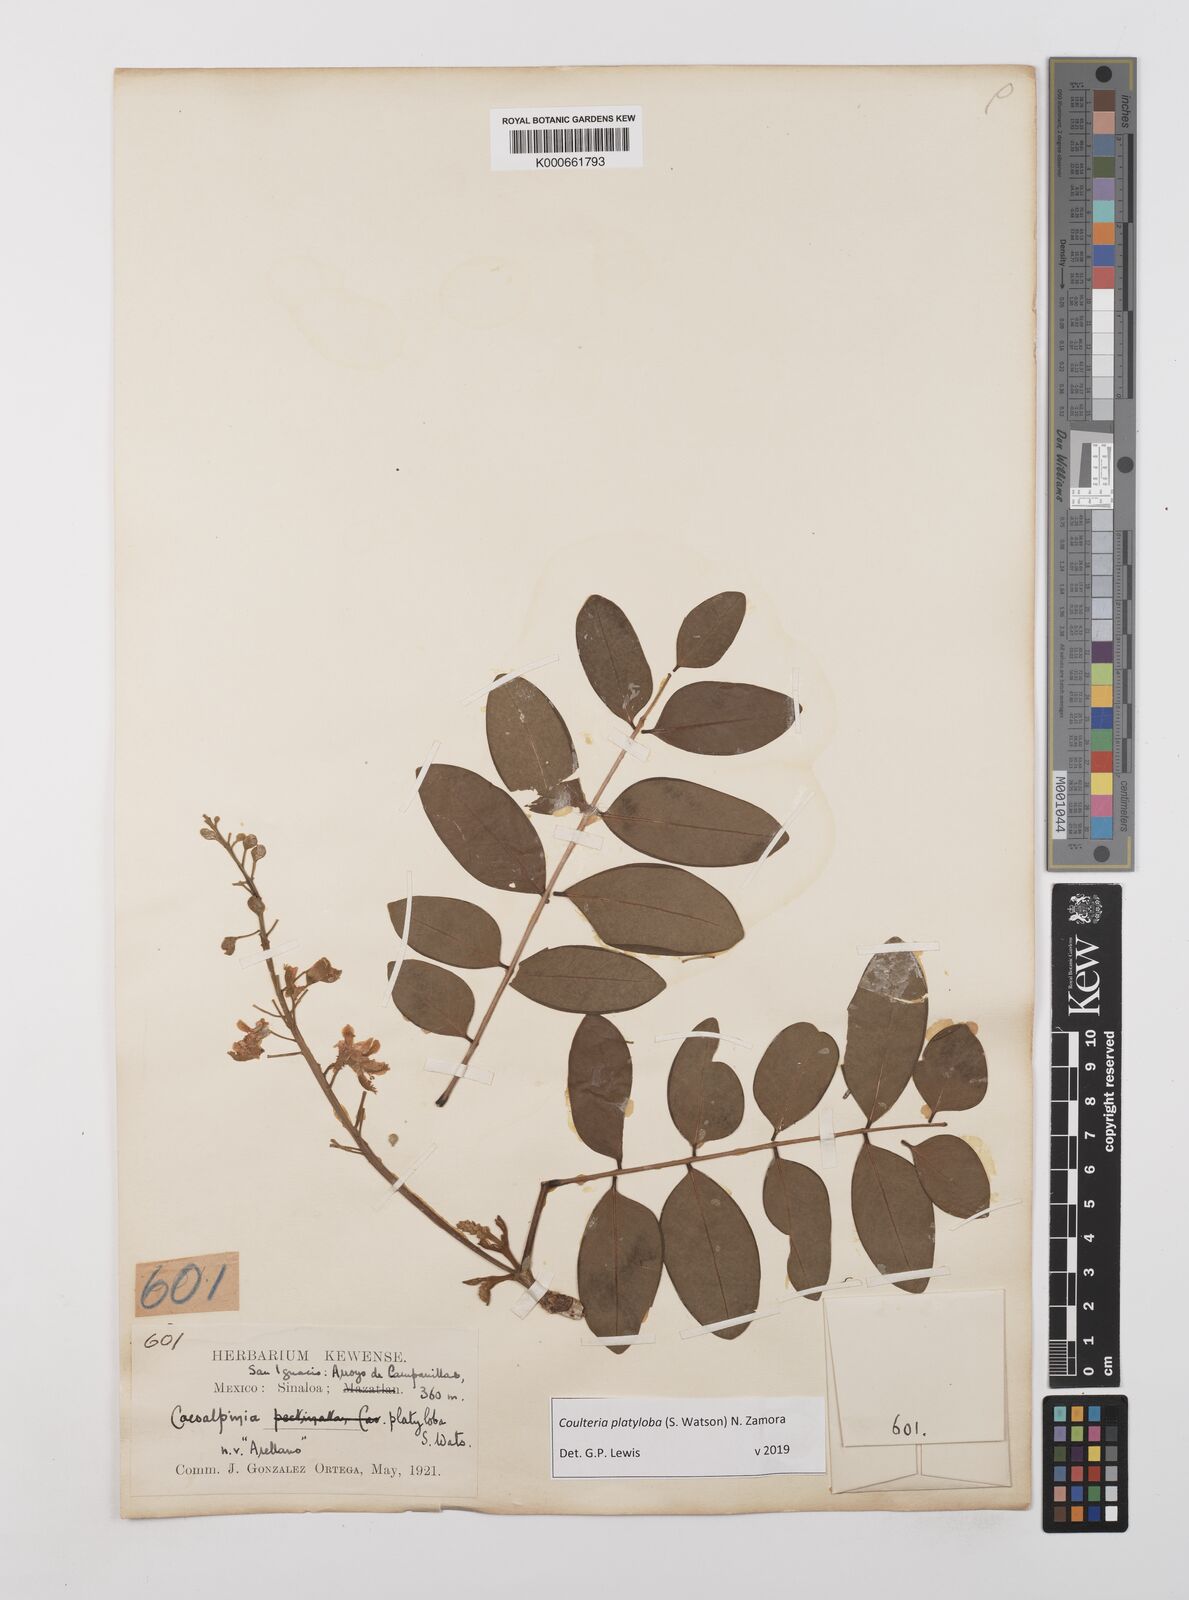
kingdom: Plantae
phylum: Tracheophyta
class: Magnoliopsida
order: Fabales
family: Fabaceae
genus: Coulteria
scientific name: Coulteria platyloba
